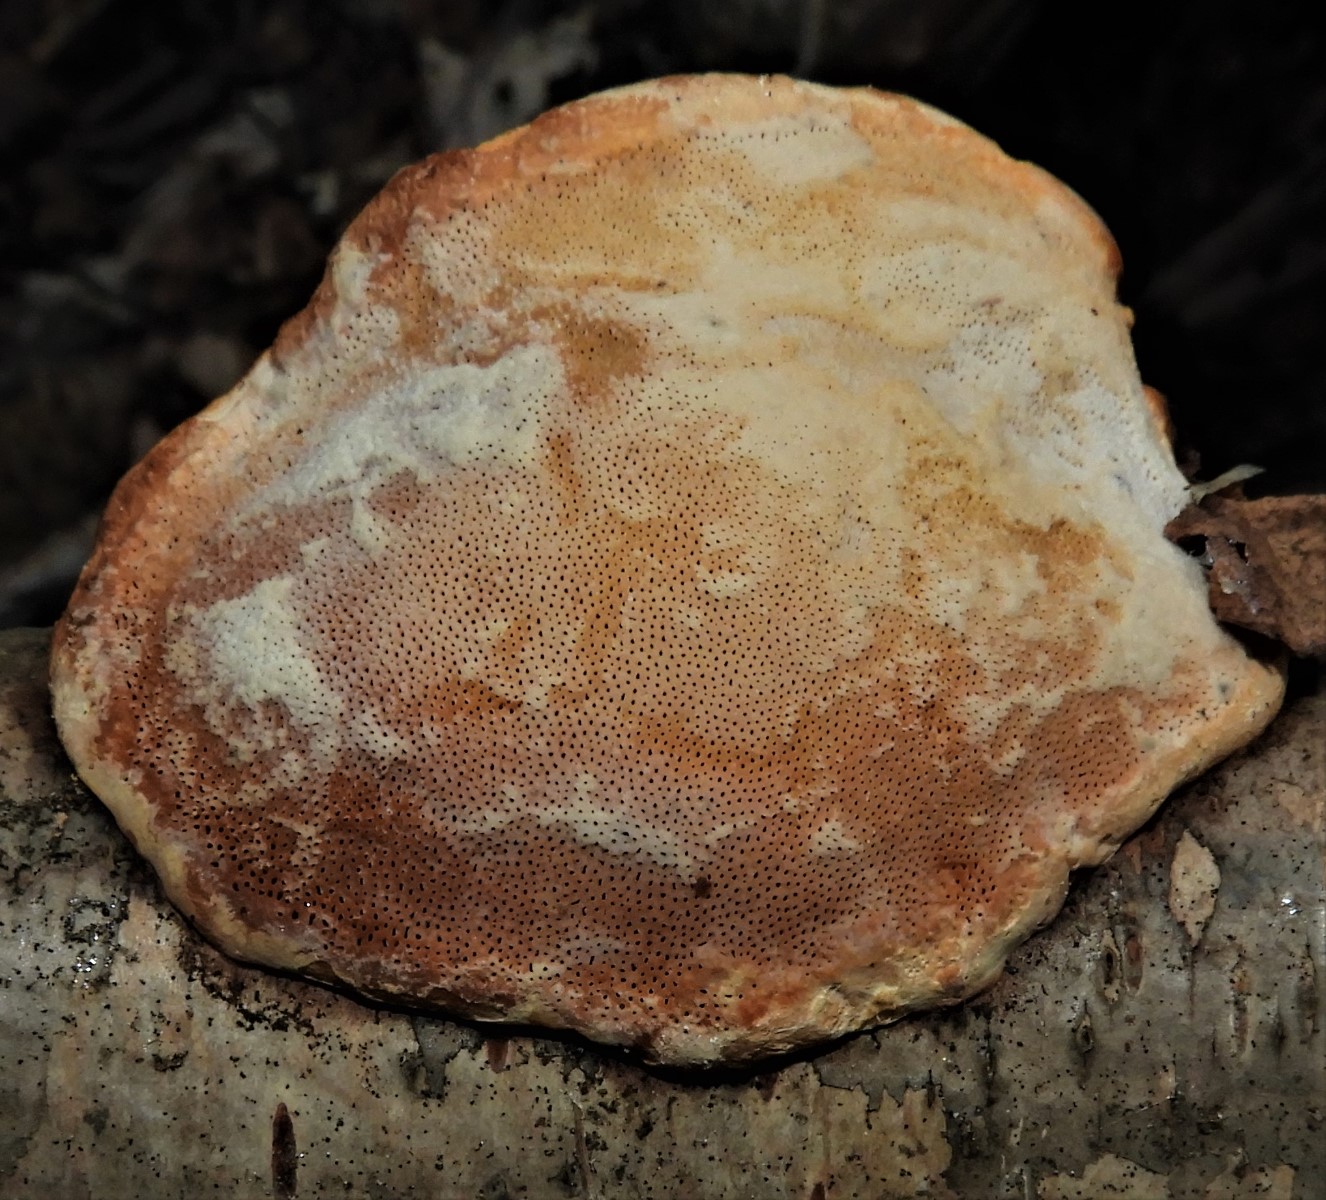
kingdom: Fungi
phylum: Basidiomycota
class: Agaricomycetes
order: Polyporales
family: Fomitopsidaceae
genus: Fomitopsis
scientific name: Fomitopsis pinicola
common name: randbæltet hovporesvamp
